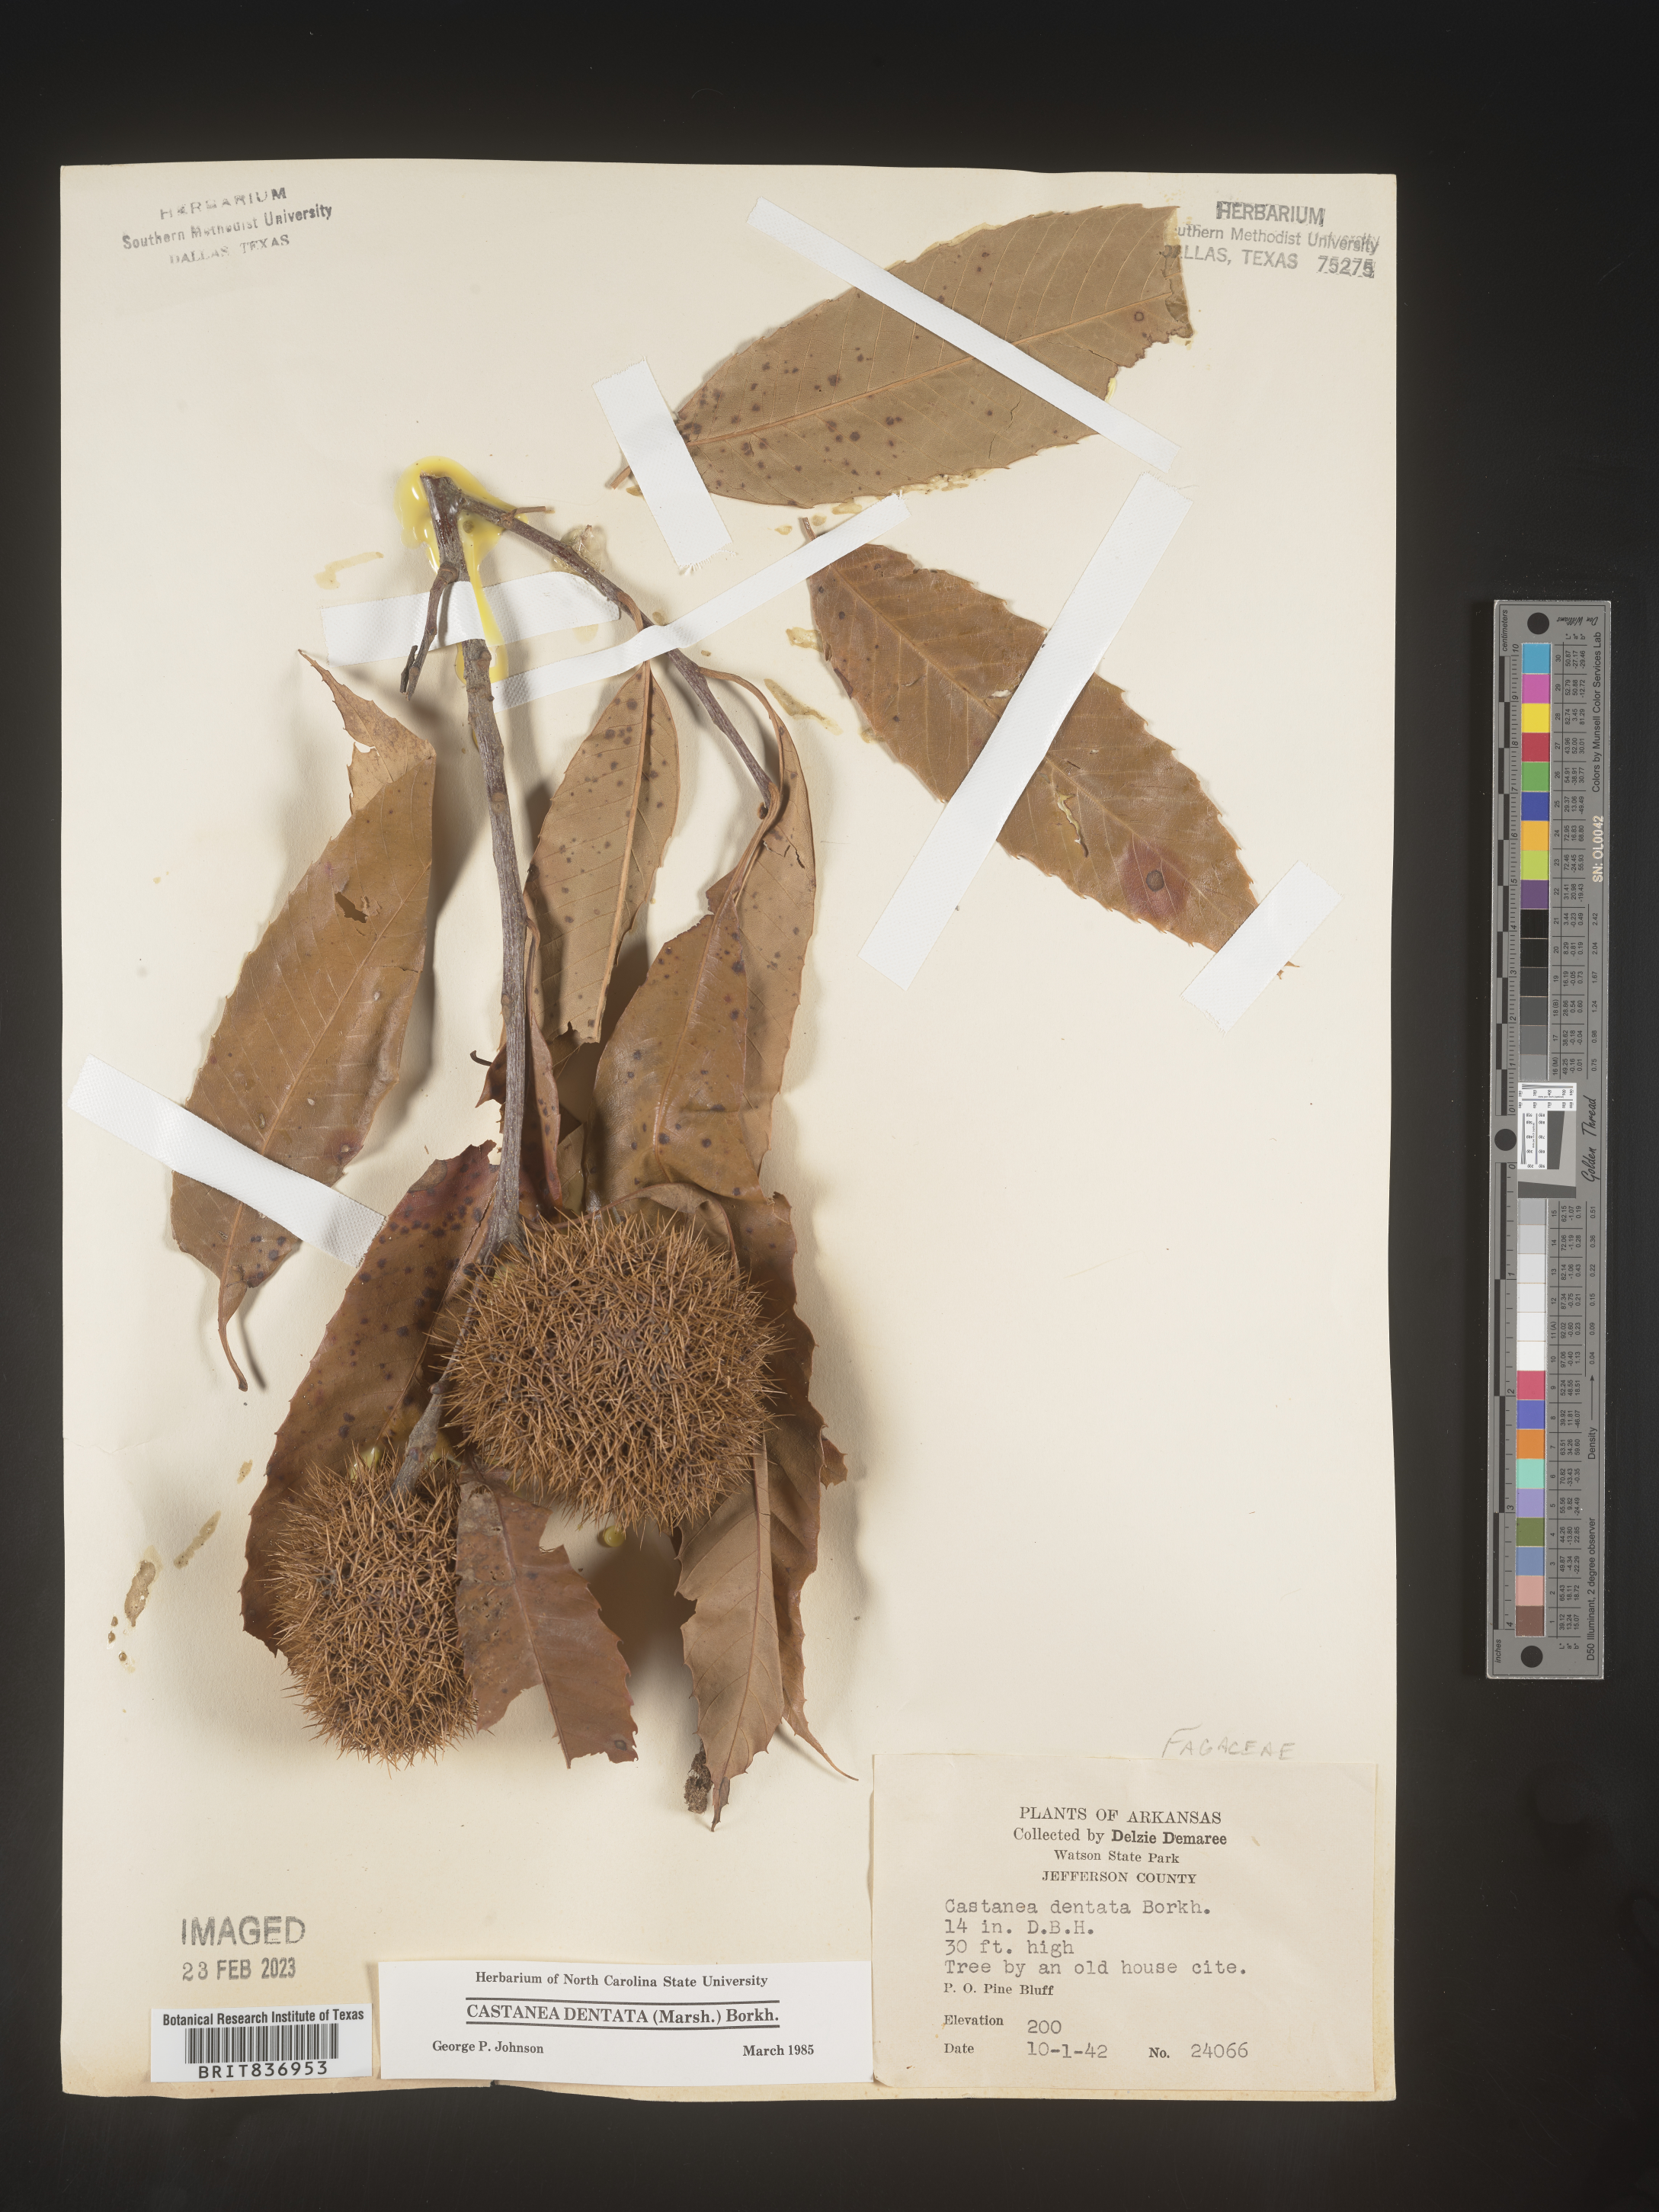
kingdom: Plantae
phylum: Tracheophyta
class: Magnoliopsida
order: Fagales
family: Fagaceae
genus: Castanea
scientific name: Castanea dentata
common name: American chestnut
